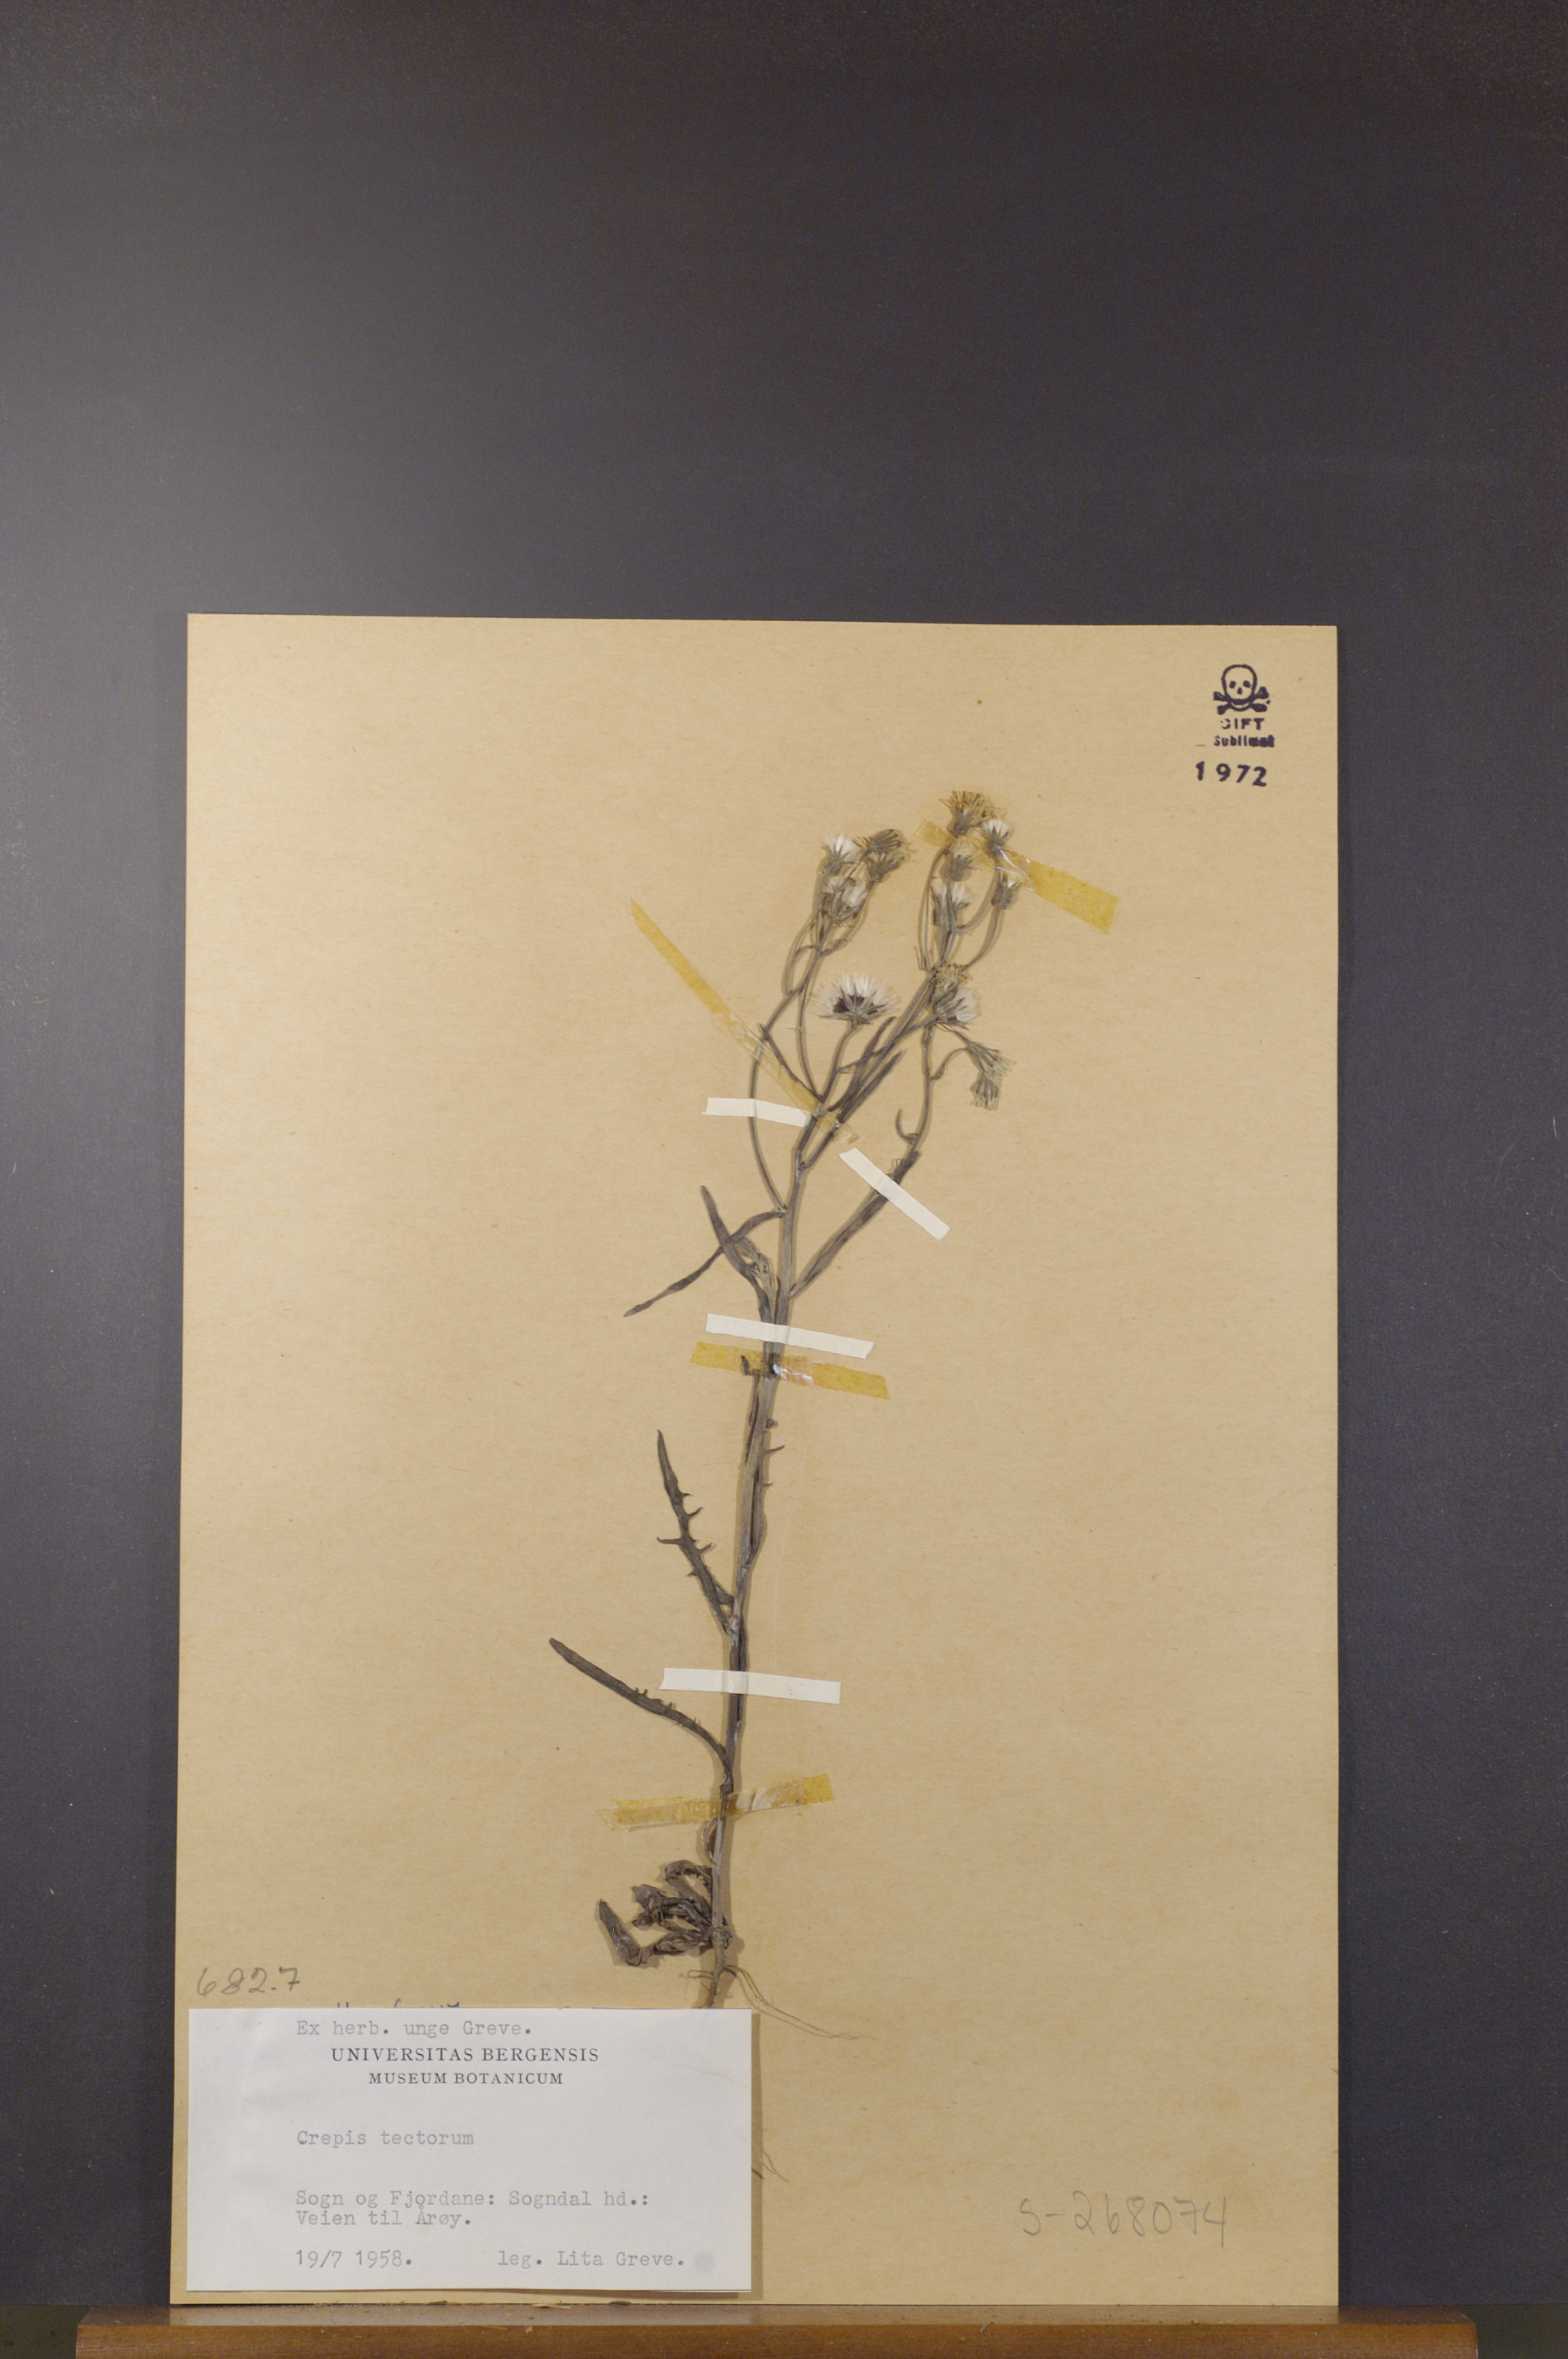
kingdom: Plantae
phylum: Tracheophyta
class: Magnoliopsida
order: Asterales
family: Asteraceae
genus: Crepis
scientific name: Crepis tectorum
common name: Narrow-leaved hawk's-beard
